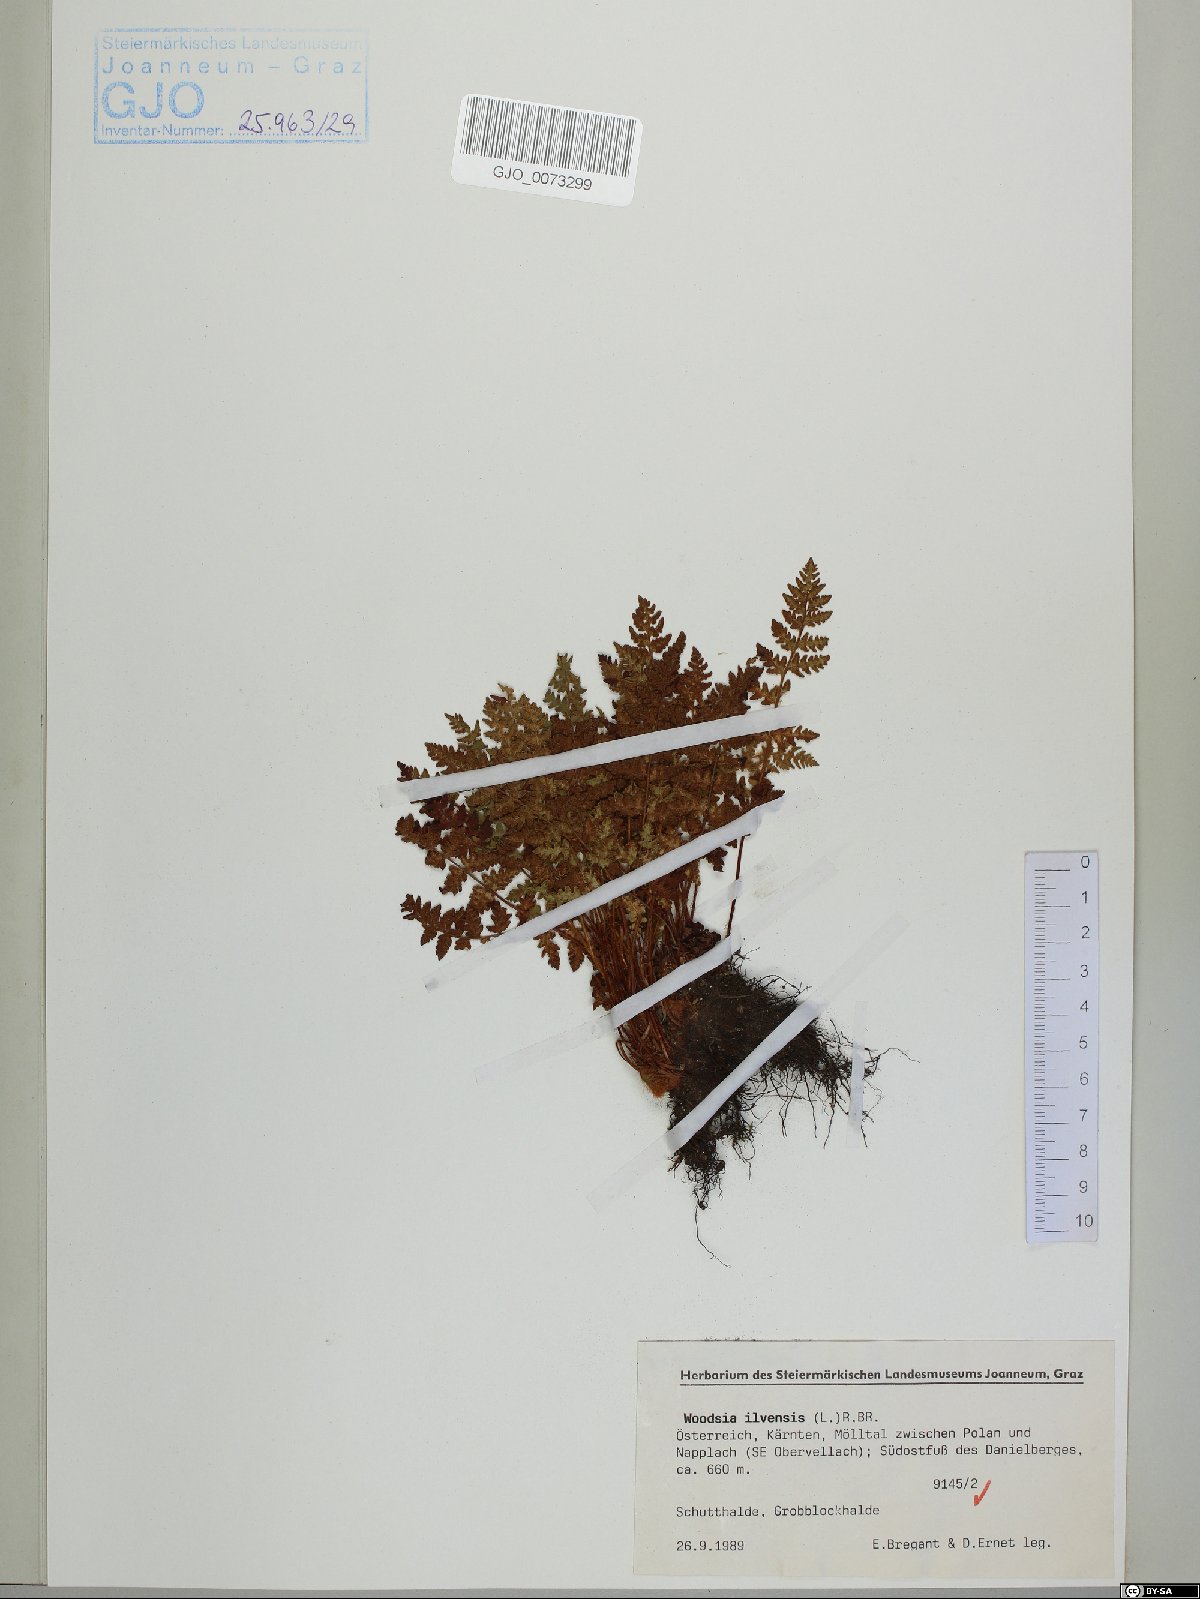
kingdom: Plantae
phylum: Tracheophyta
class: Polypodiopsida
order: Polypodiales
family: Woodsiaceae
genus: Woodsia
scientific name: Woodsia ilvensis
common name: Fragrant woodsia
